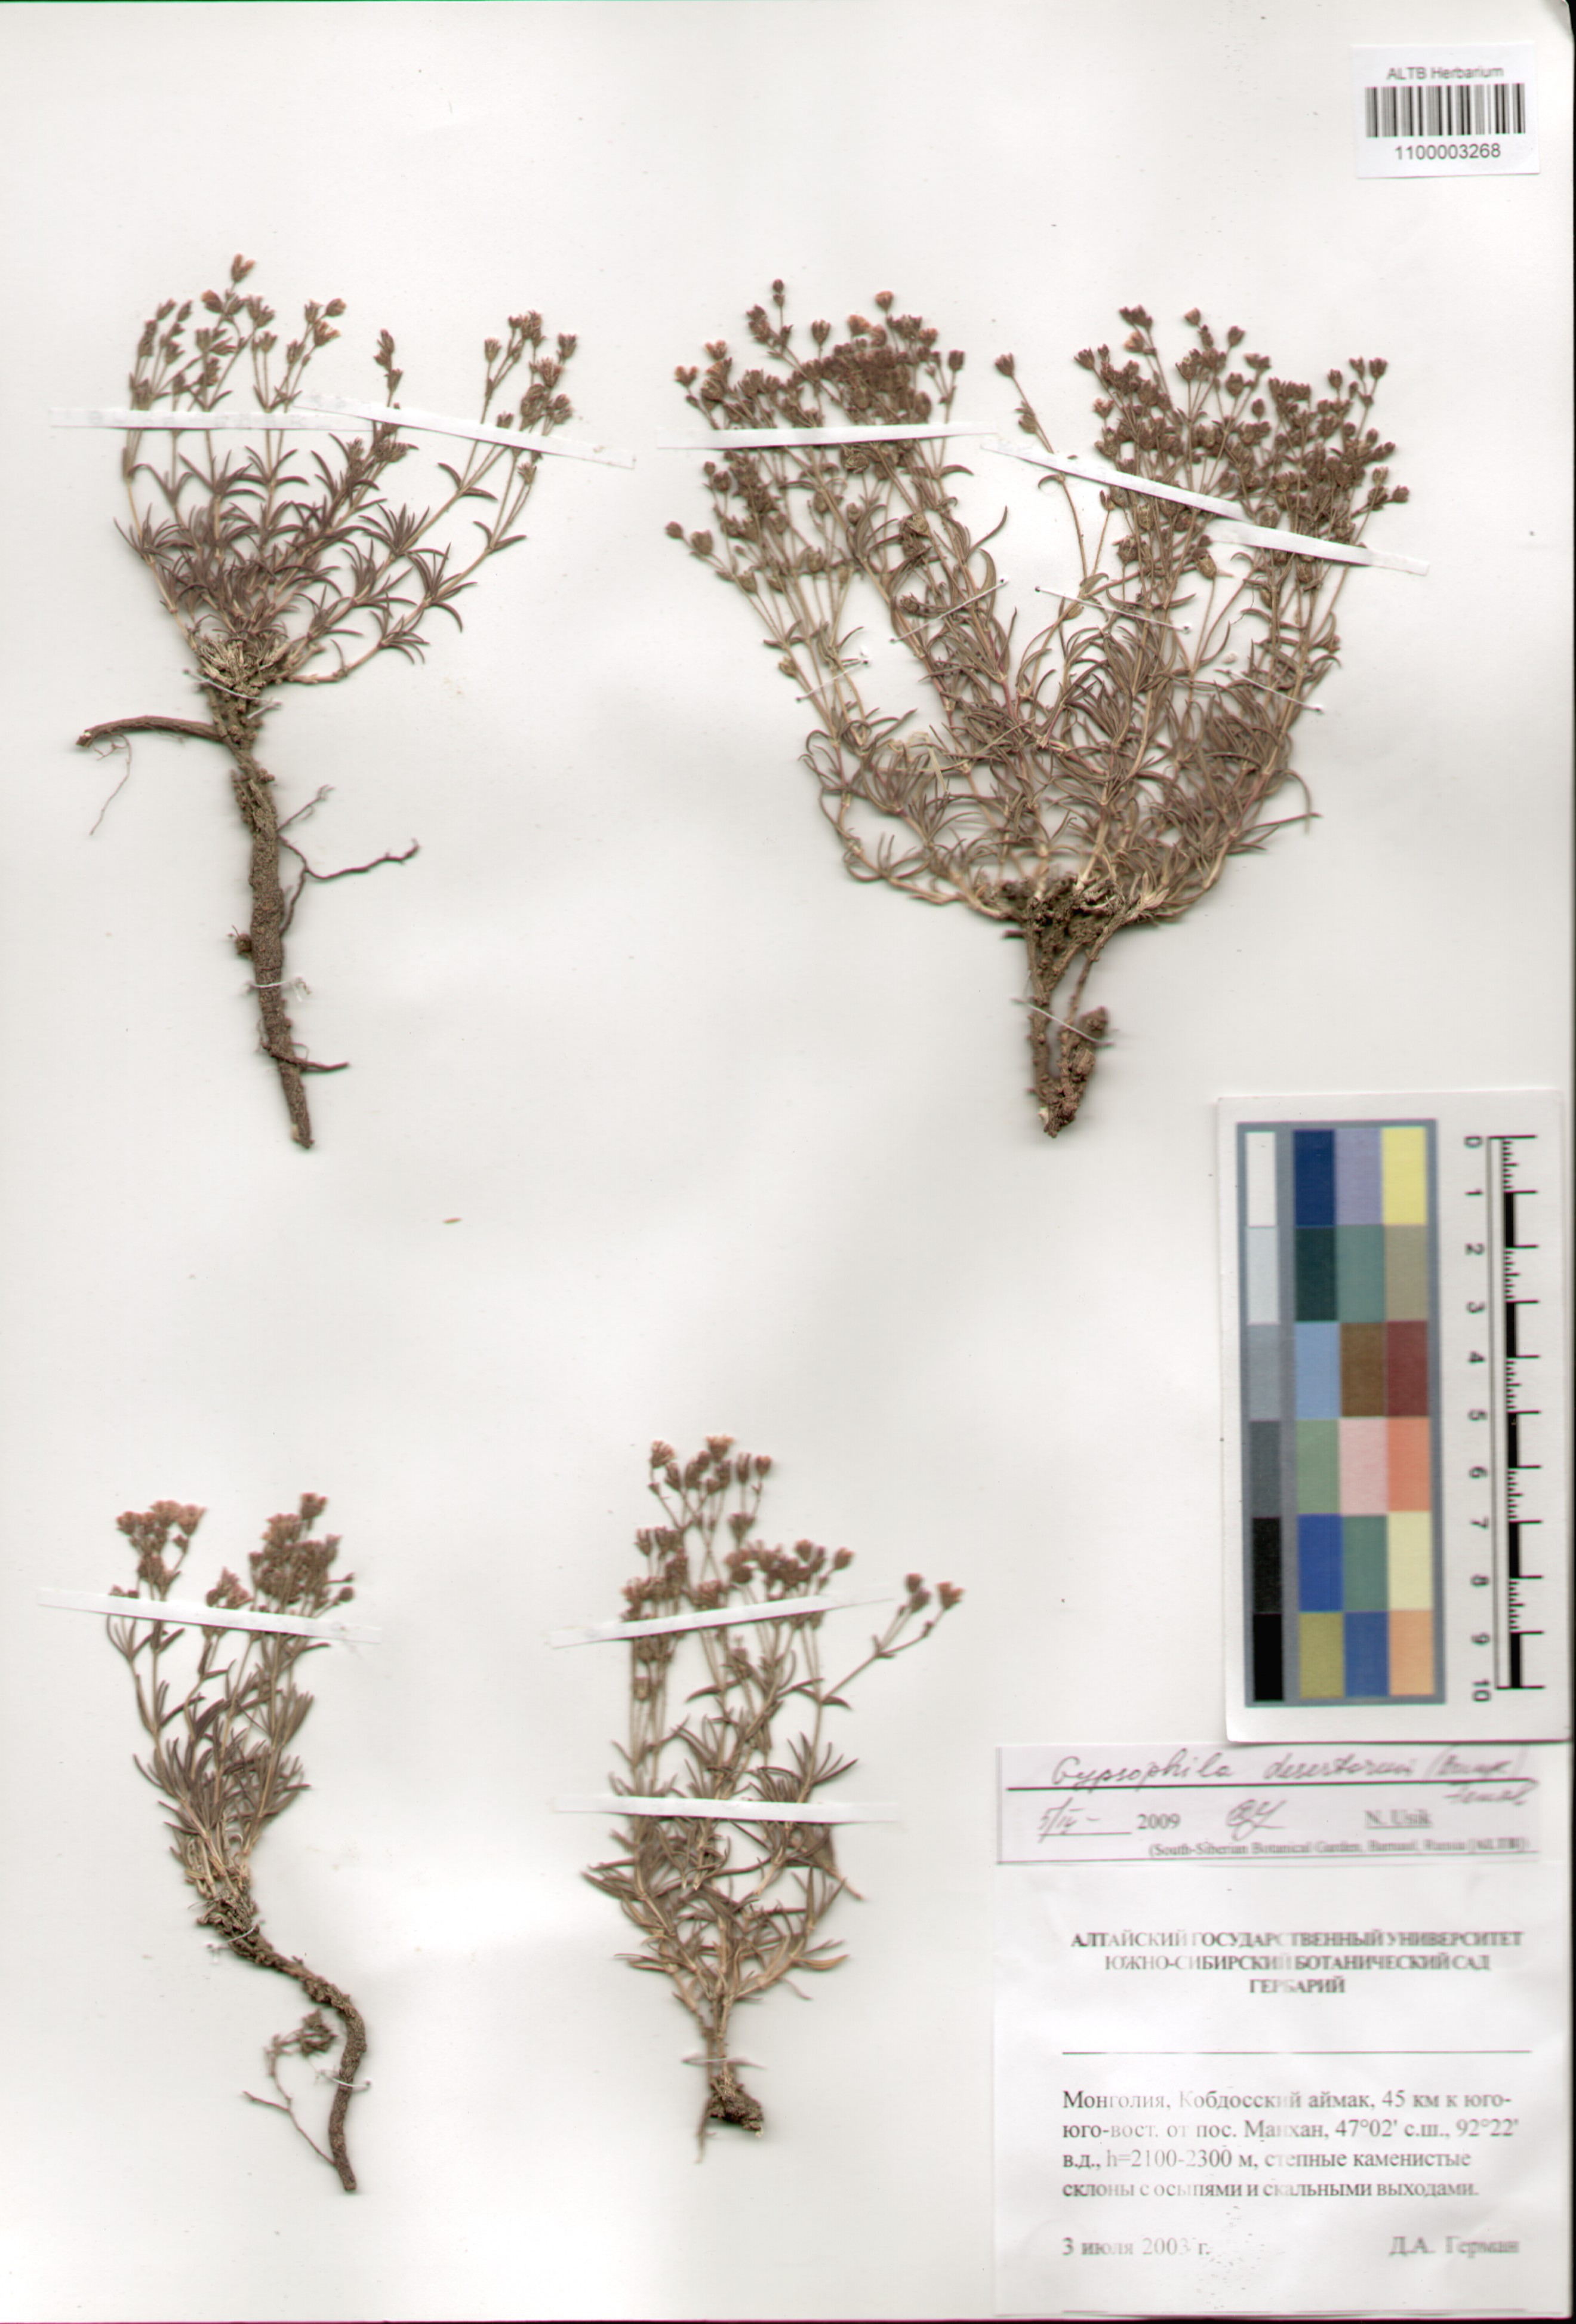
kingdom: Plantae
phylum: Tracheophyta
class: Magnoliopsida
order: Caryophyllales
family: Caryophyllaceae
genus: Heterochroa
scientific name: Heterochroa desertorum
